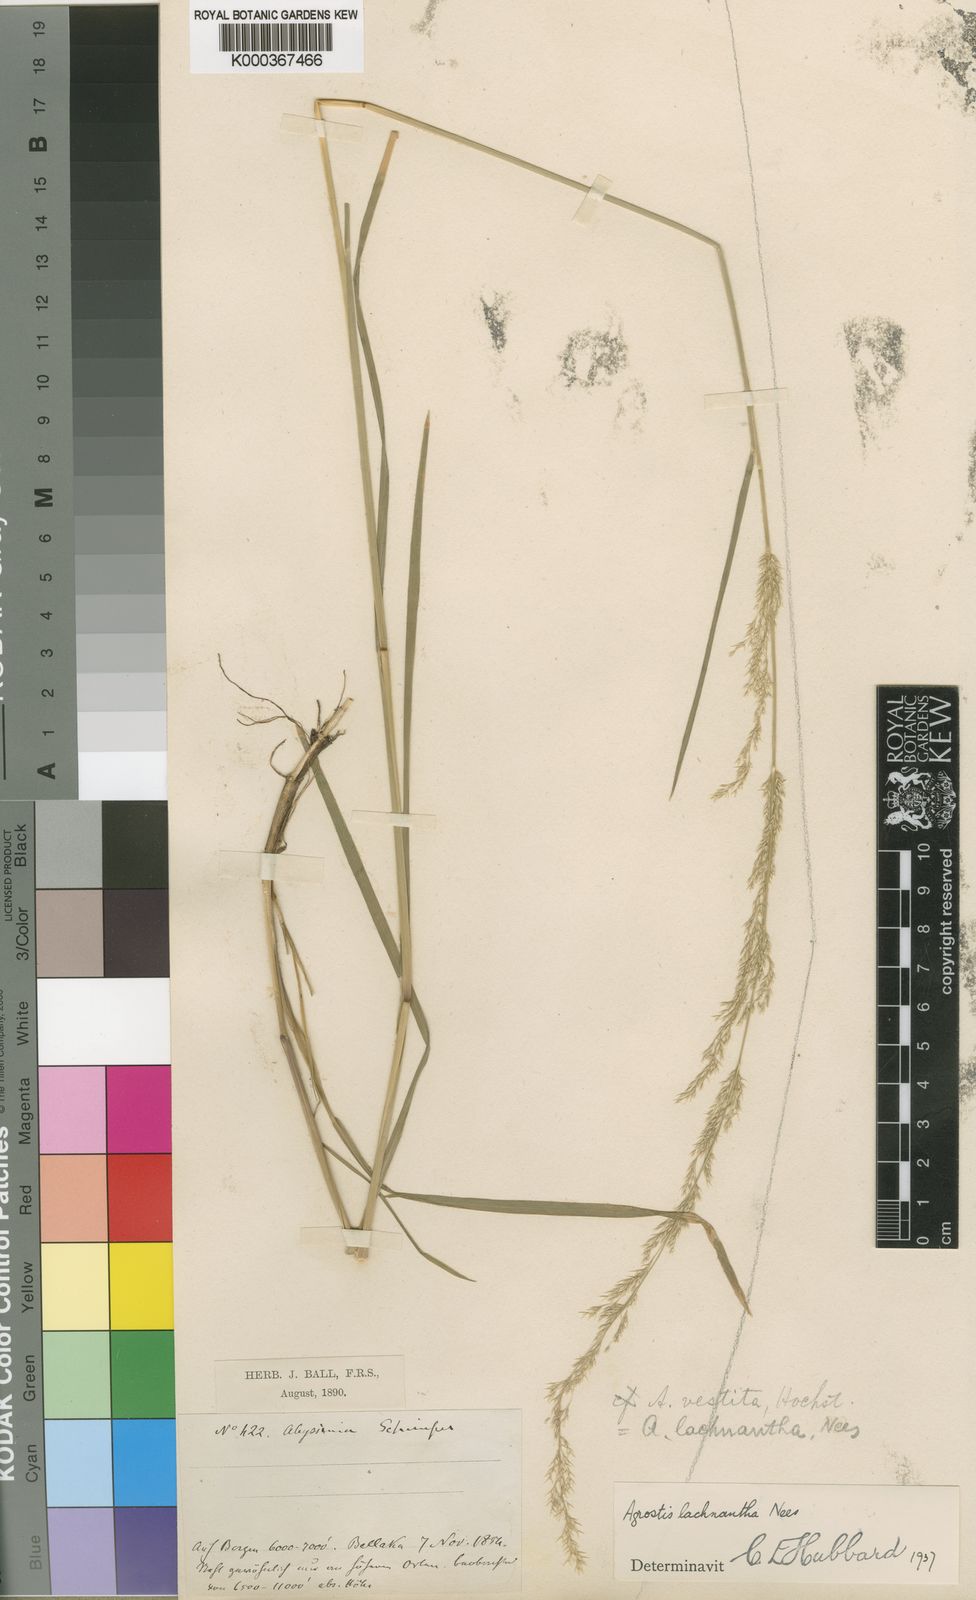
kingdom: Plantae
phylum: Tracheophyta
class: Liliopsida
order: Poales
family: Poaceae
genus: Lachnagrostis
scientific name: Lachnagrostis lachnantha
